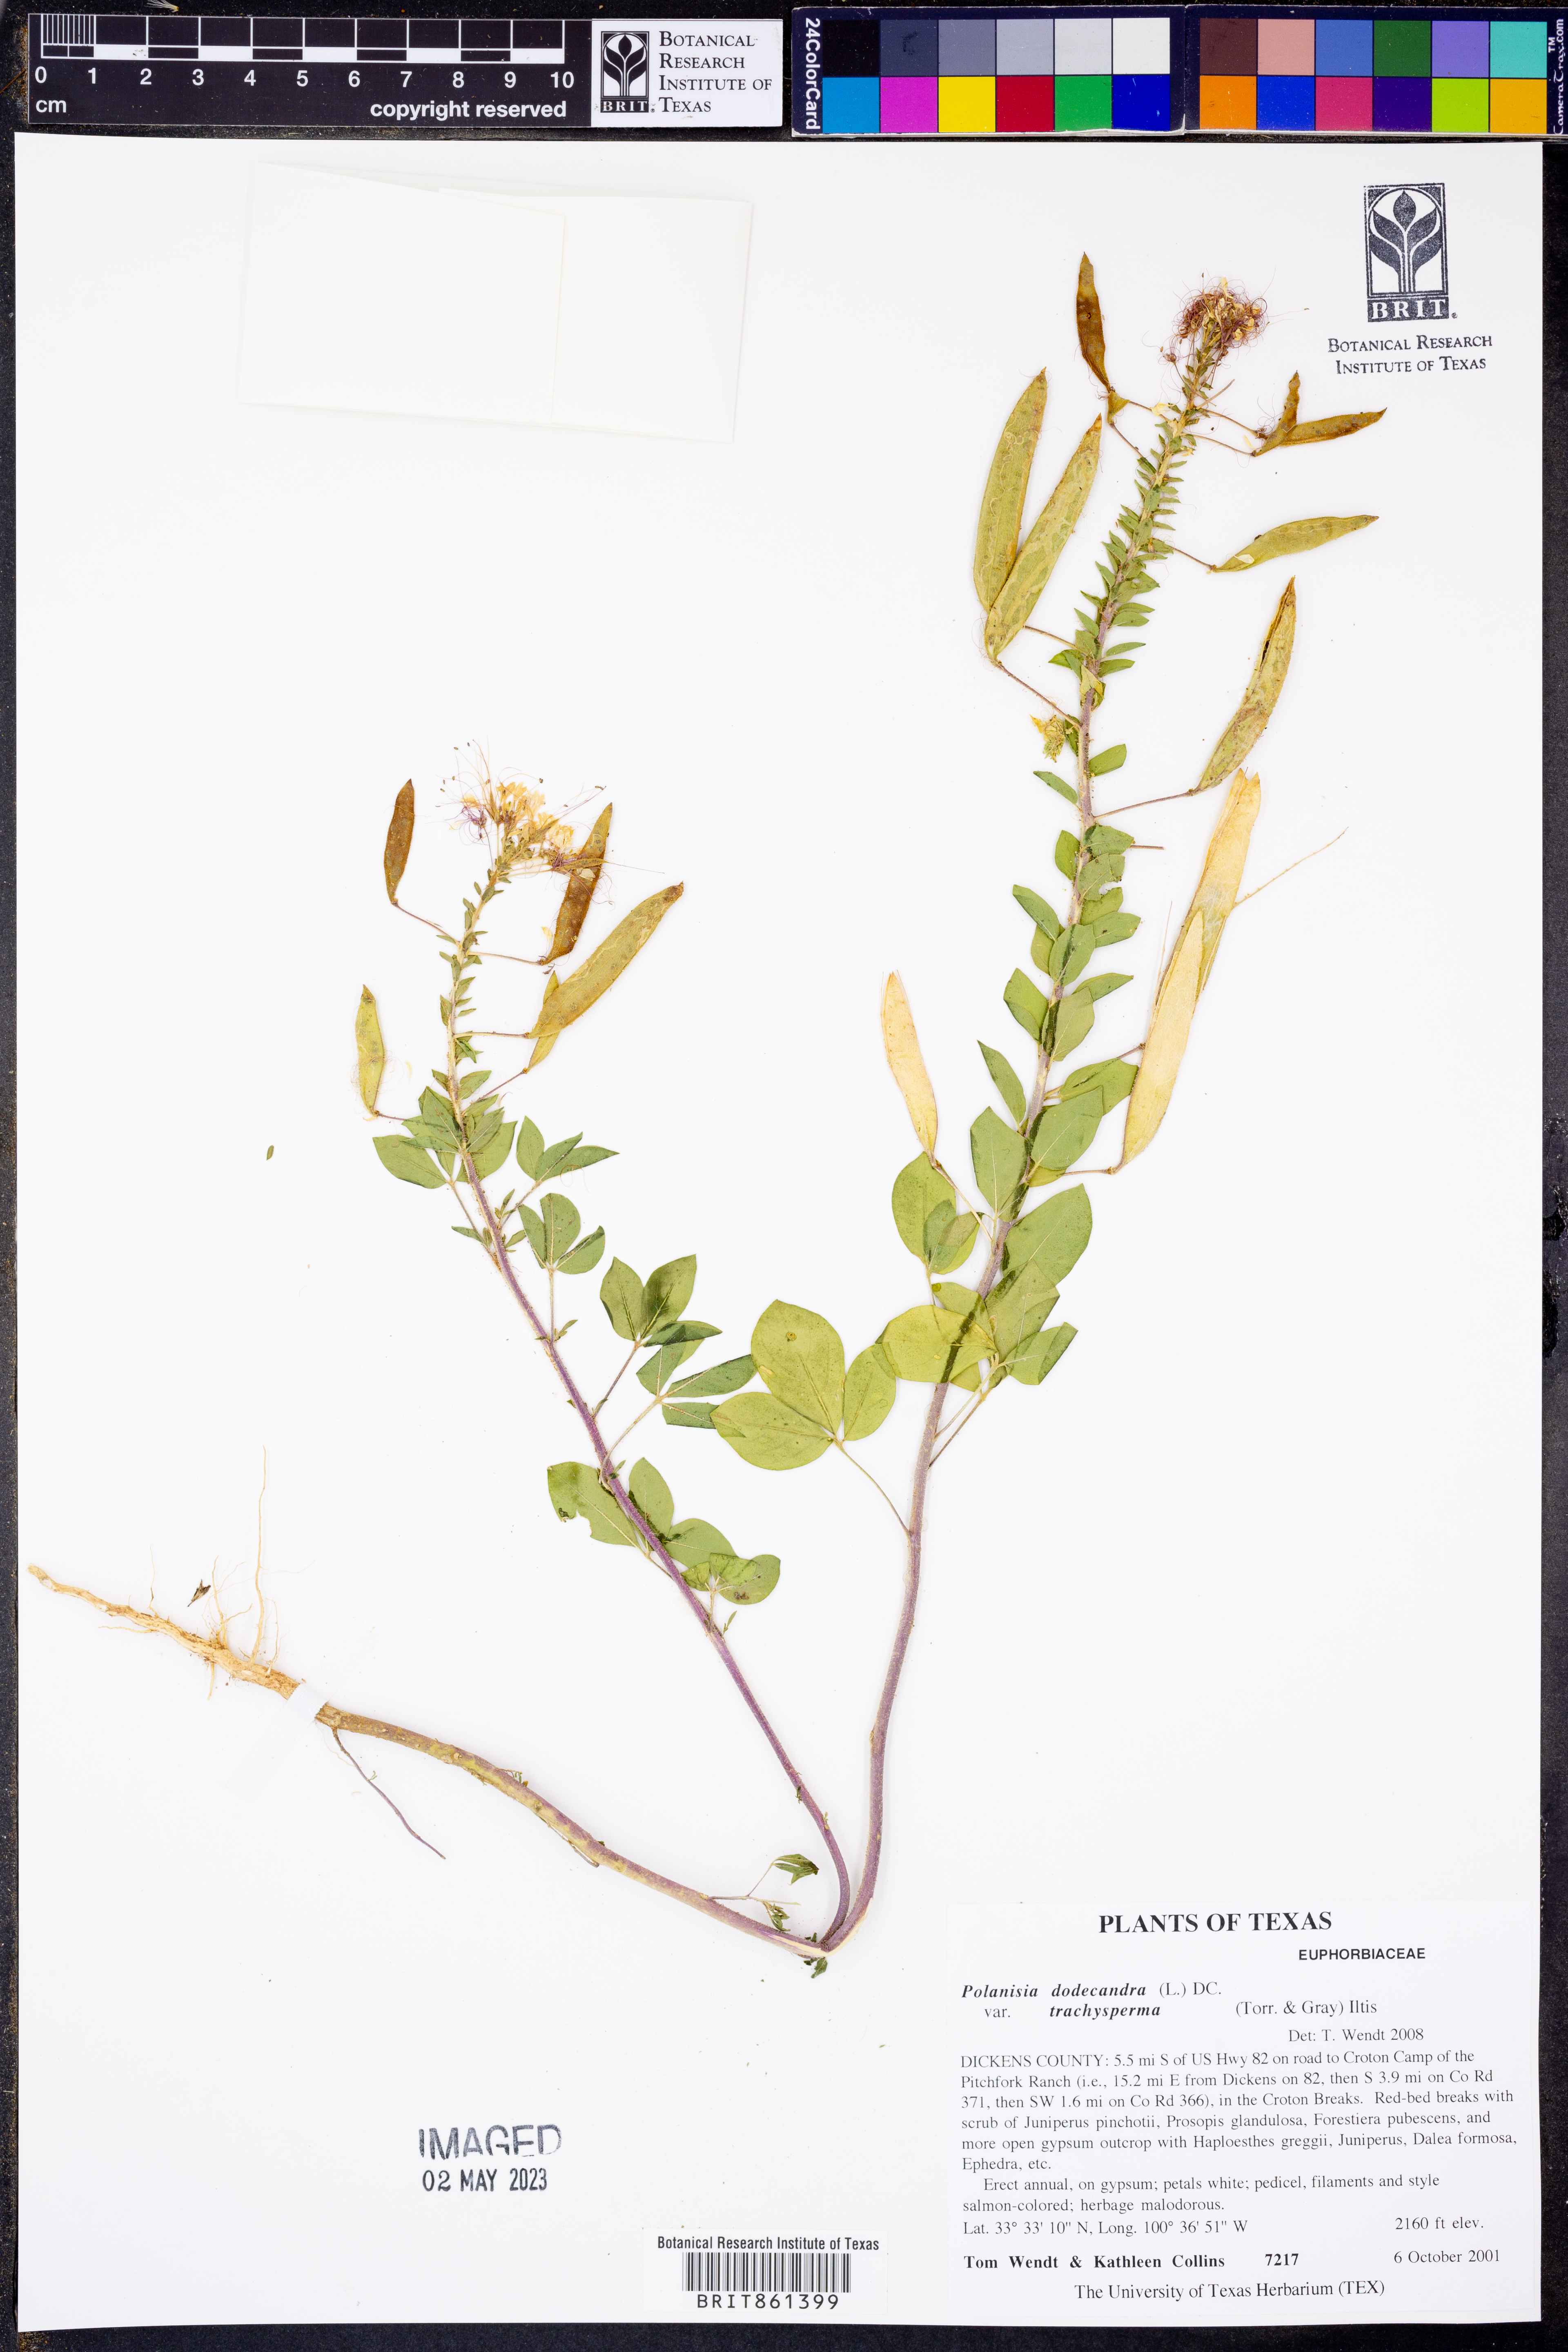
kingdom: Plantae
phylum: Tracheophyta
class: Magnoliopsida
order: Brassicales
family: Cleomaceae
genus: Polanisia
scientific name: Polanisia trachysperma
